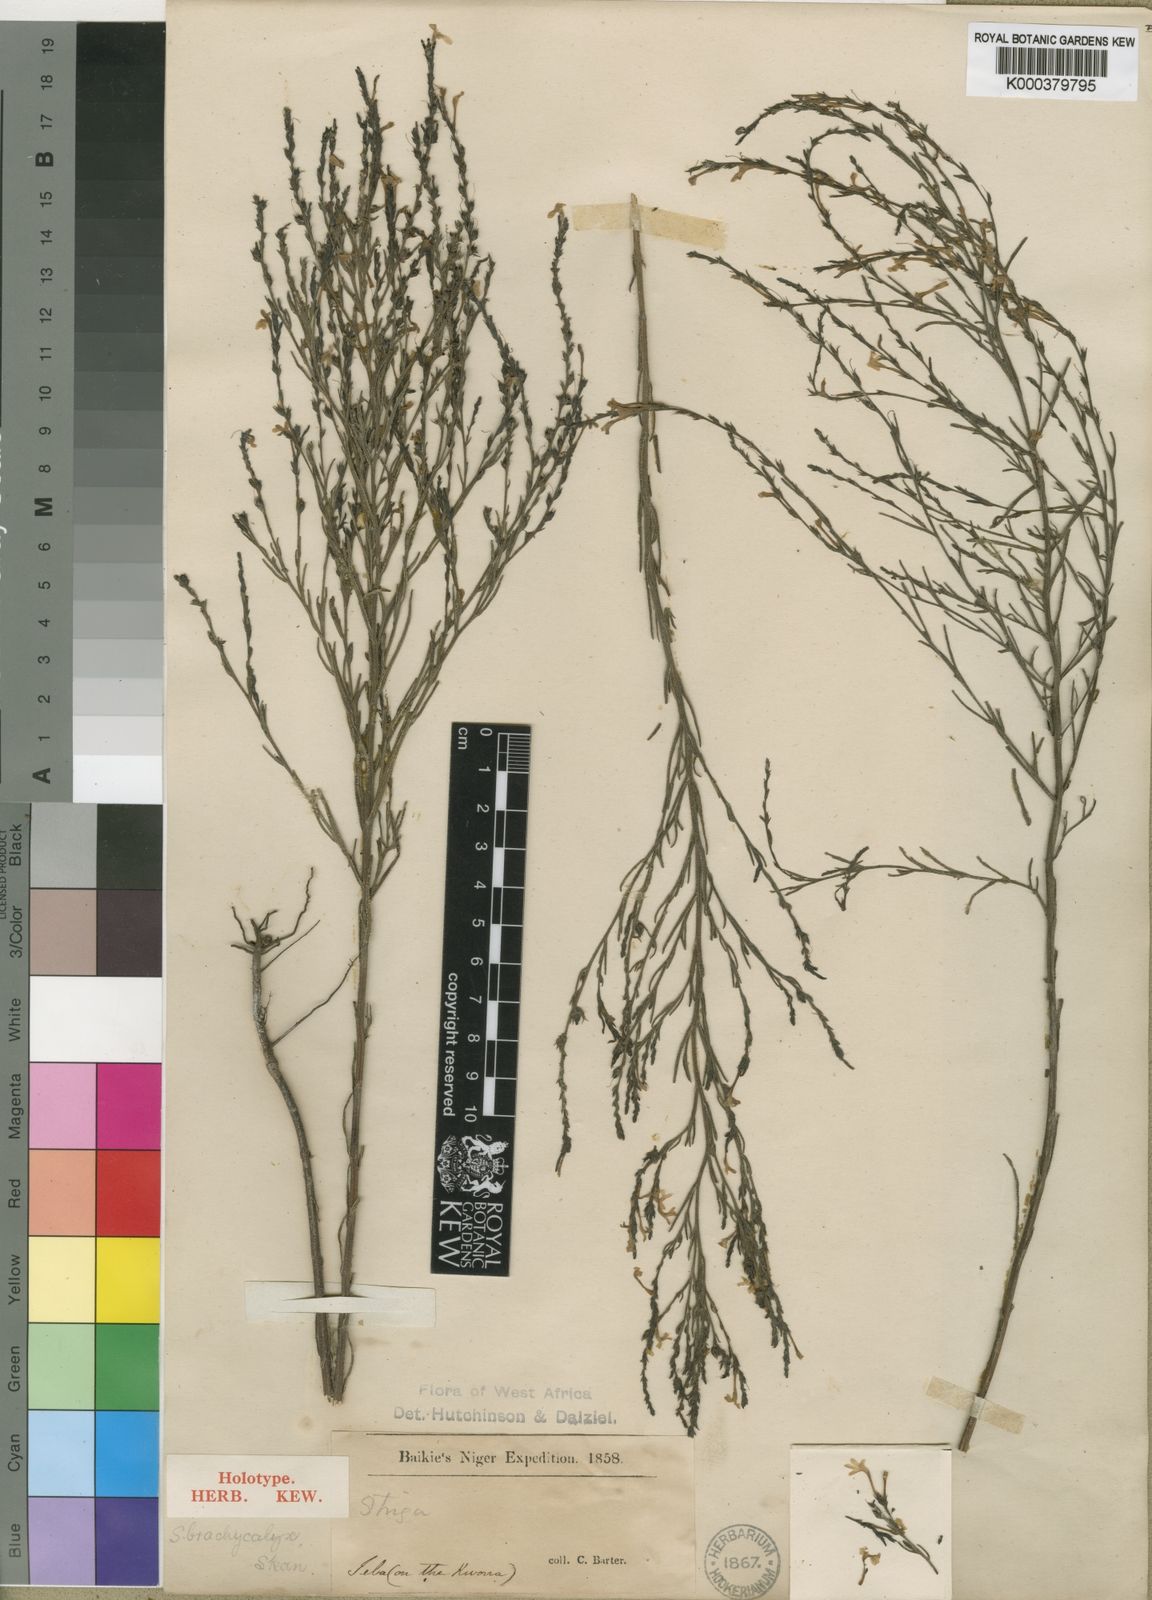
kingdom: Plantae
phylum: Tracheophyta
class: Magnoliopsida
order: Lamiales
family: Orobanchaceae
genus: Striga
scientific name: Striga brachycalyx
